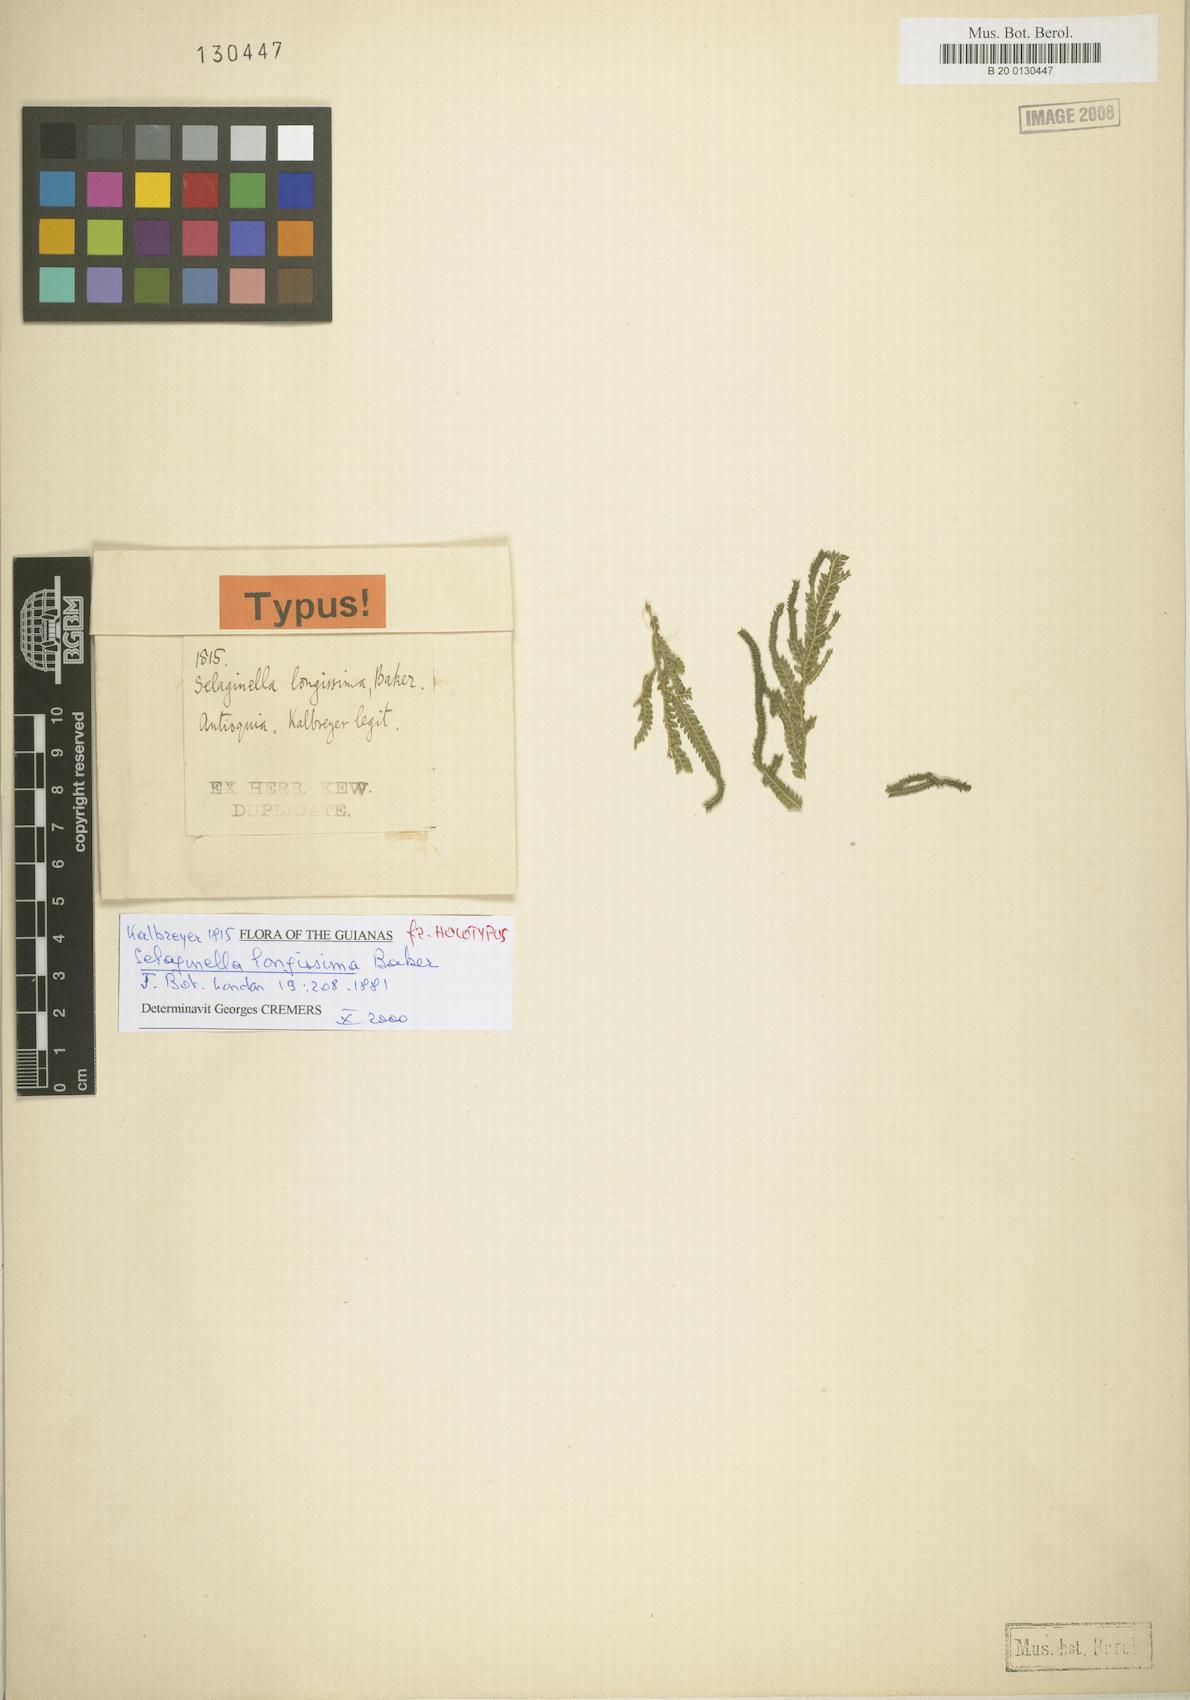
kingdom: Plantae
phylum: Tracheophyta
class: Lycopodiopsida
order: Selaginellales
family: Selaginellaceae
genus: Selaginella
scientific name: Selaginella longissima
